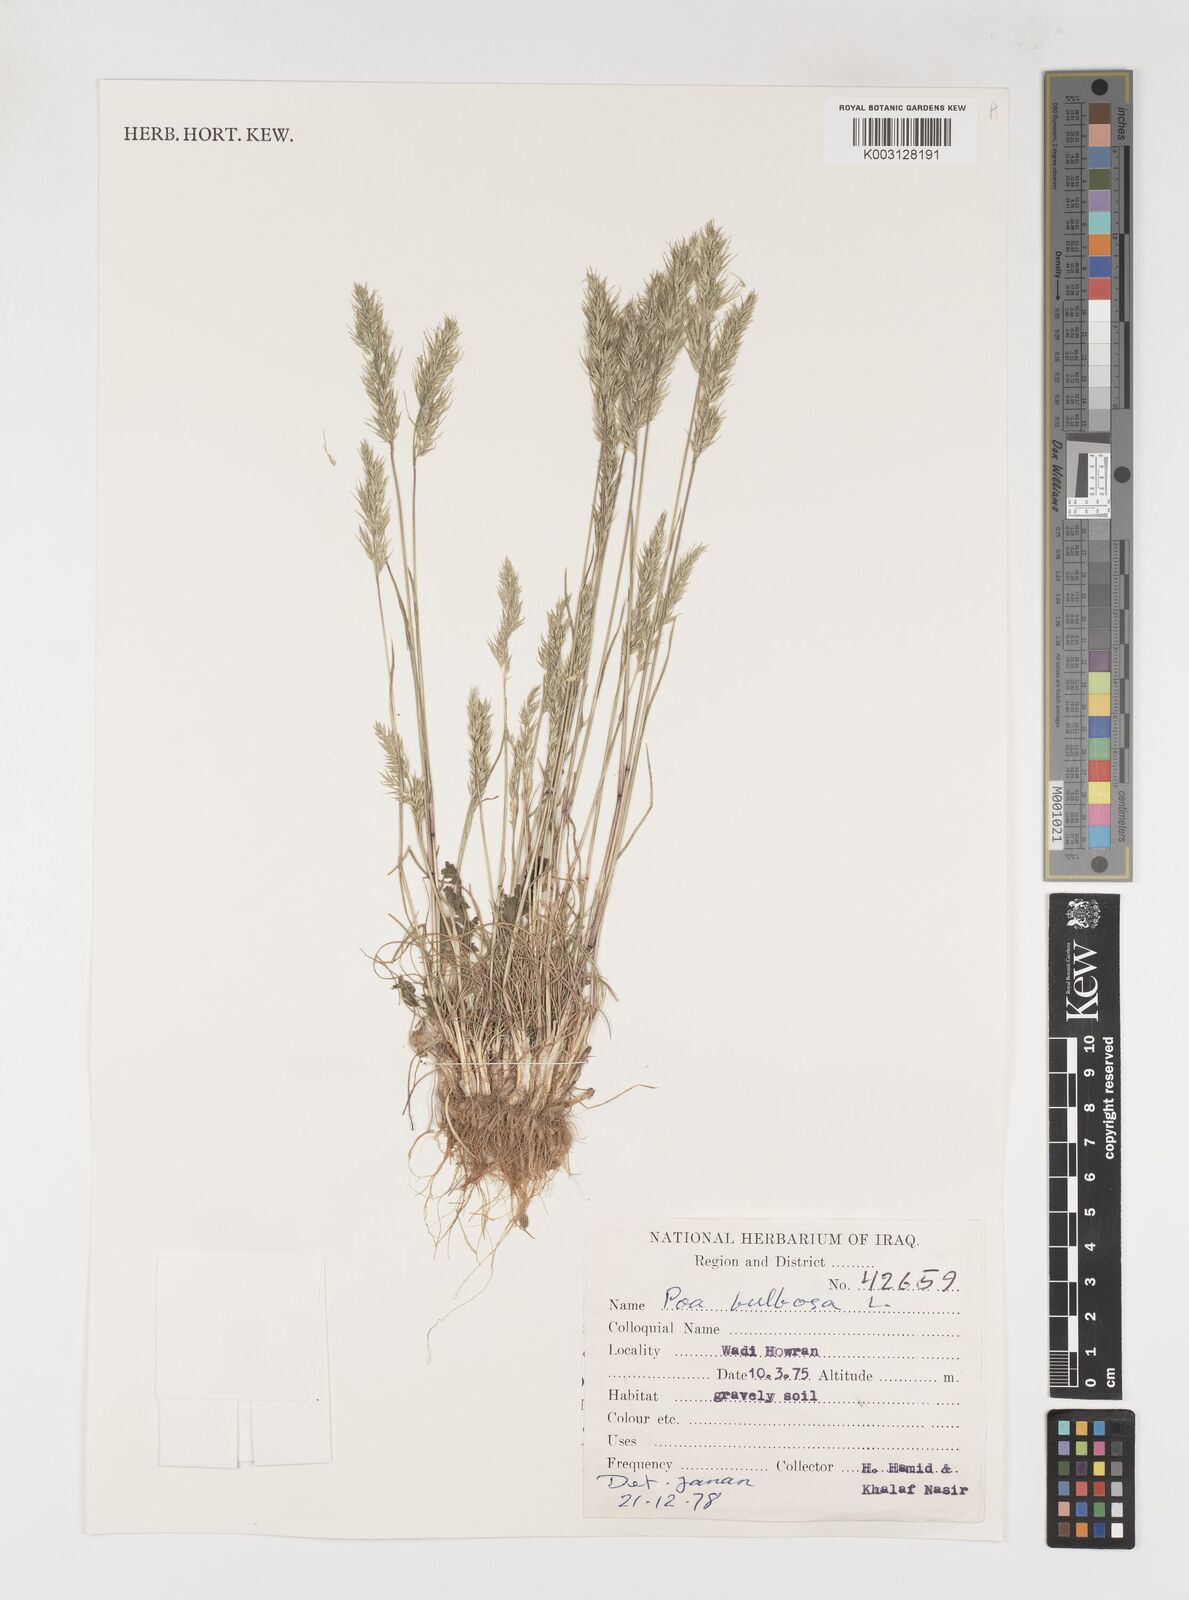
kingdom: Plantae
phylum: Tracheophyta
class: Liliopsida
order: Poales
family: Poaceae
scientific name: Poaceae
